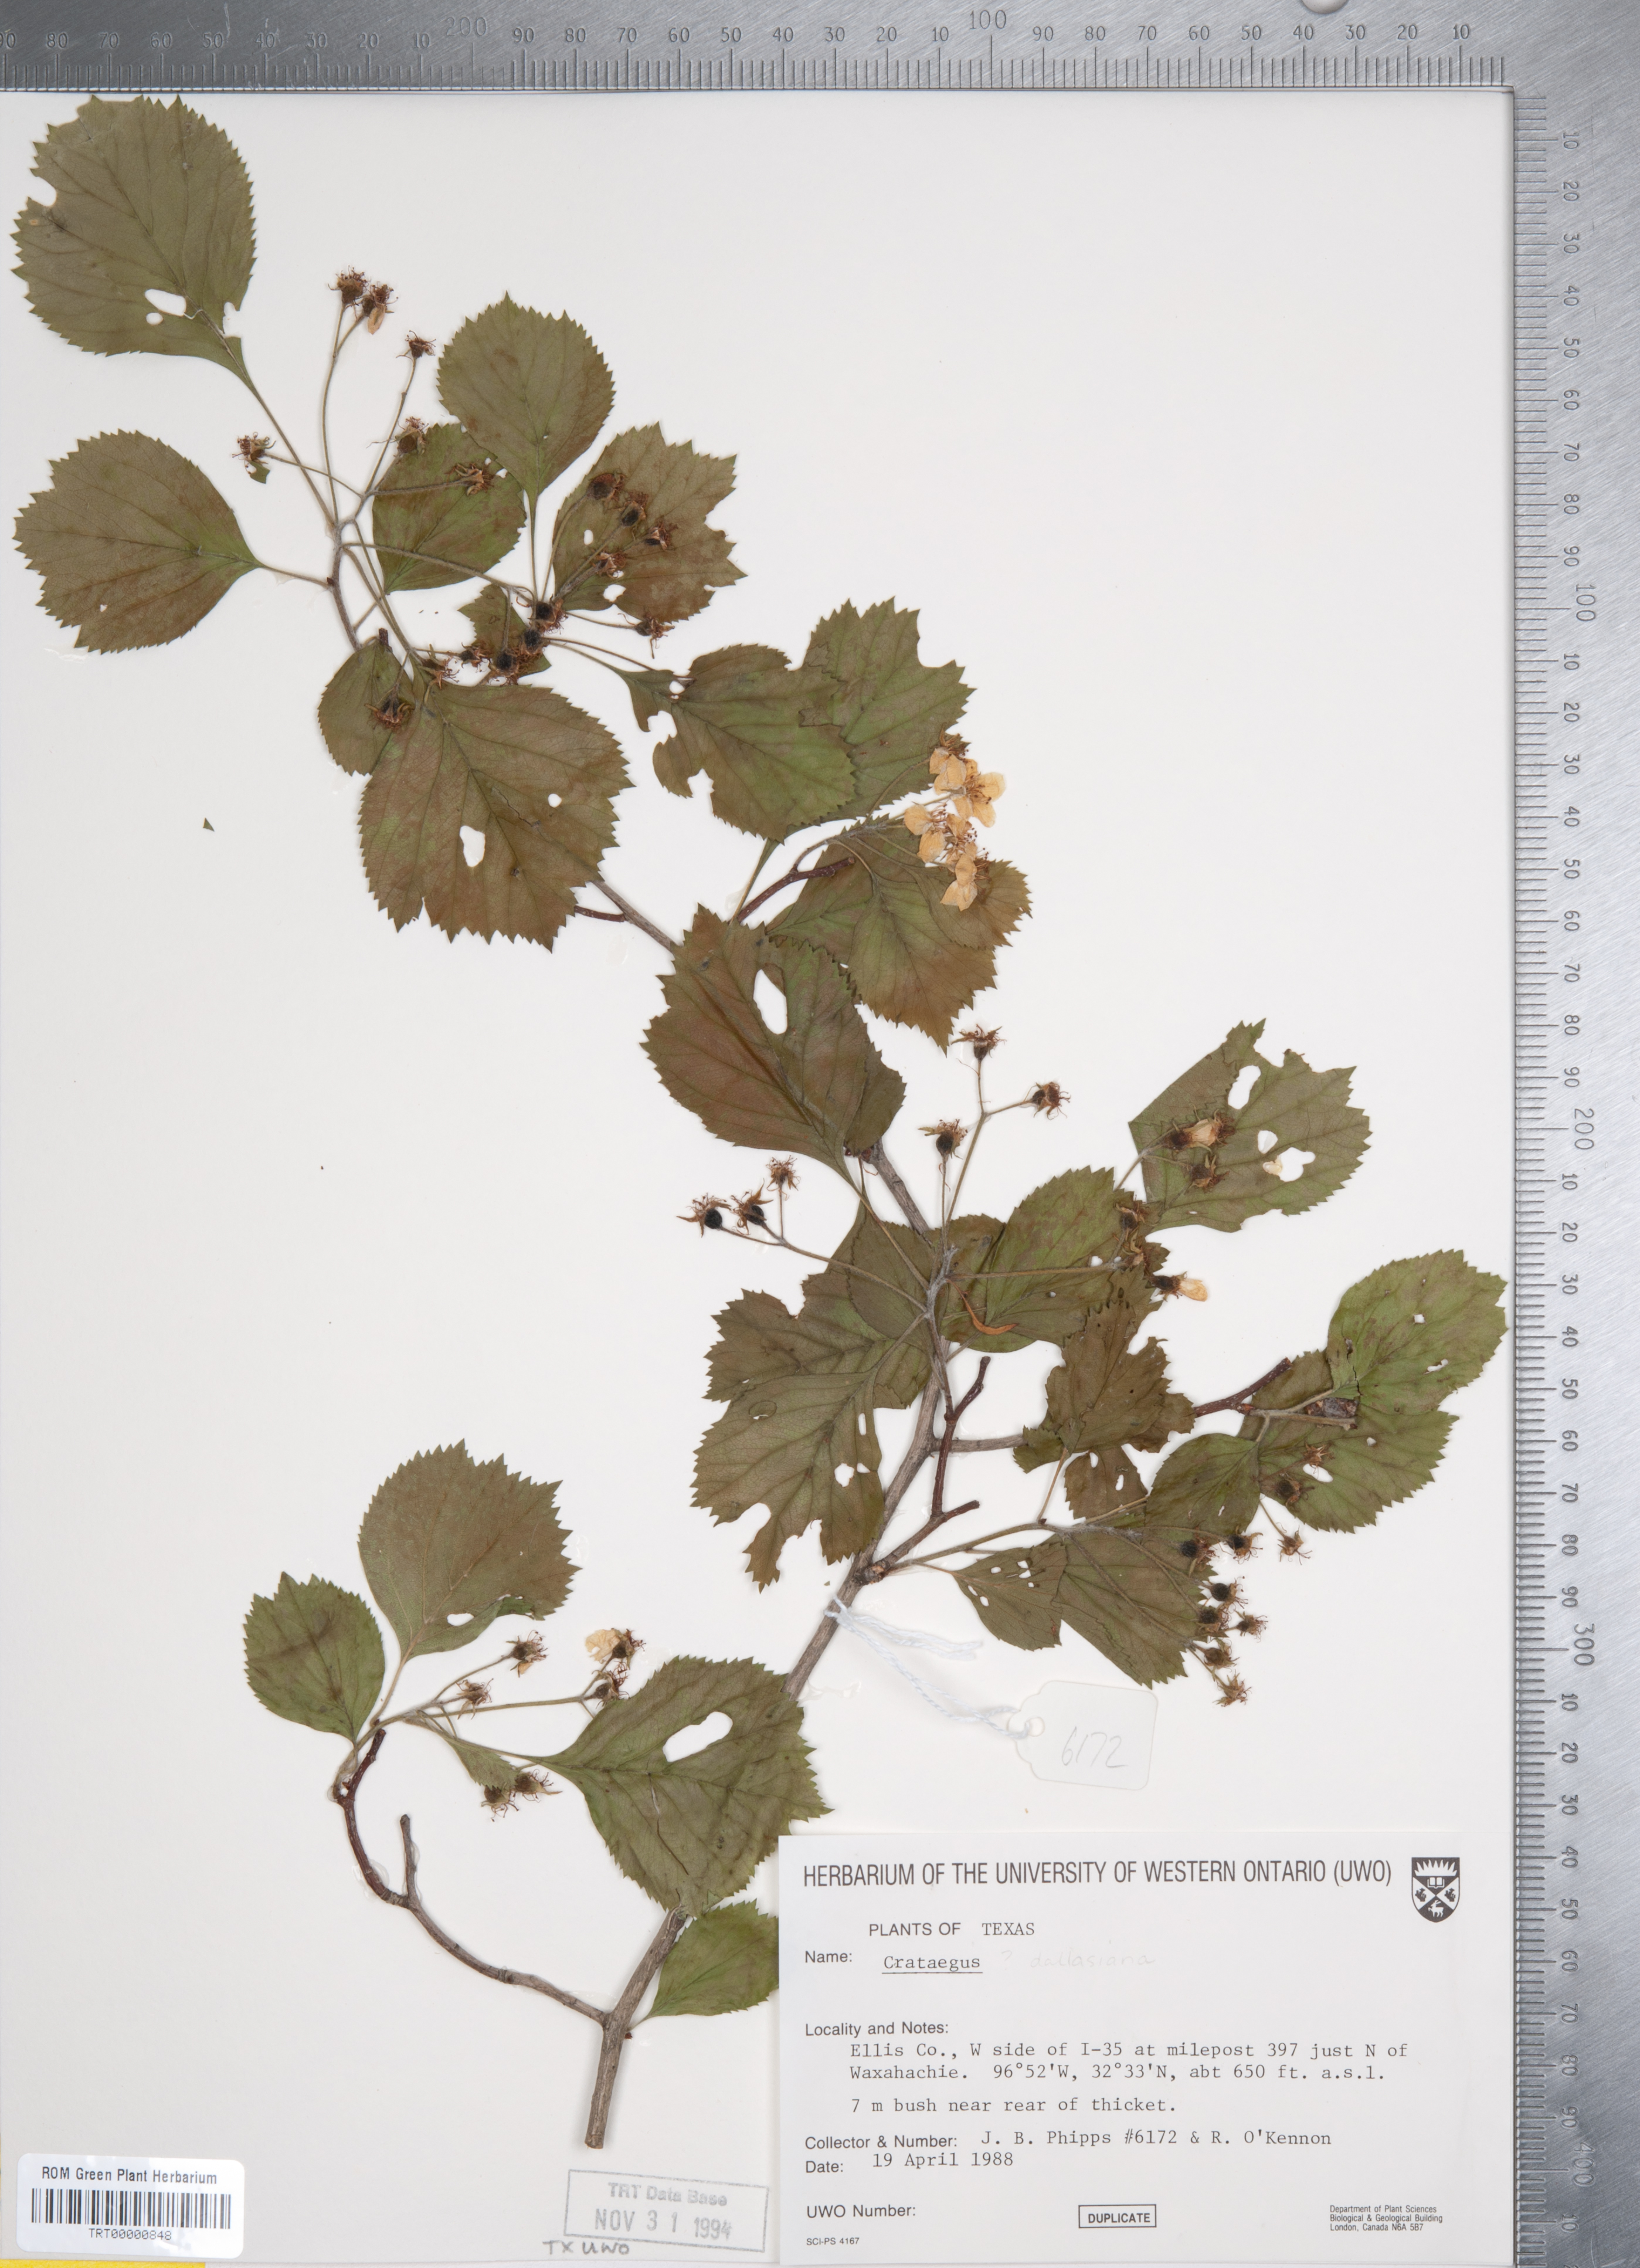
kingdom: Plantae
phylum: Tracheophyta
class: Magnoliopsida
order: Rosales
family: Rosaceae
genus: Crataegus
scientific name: Crataegus texana
